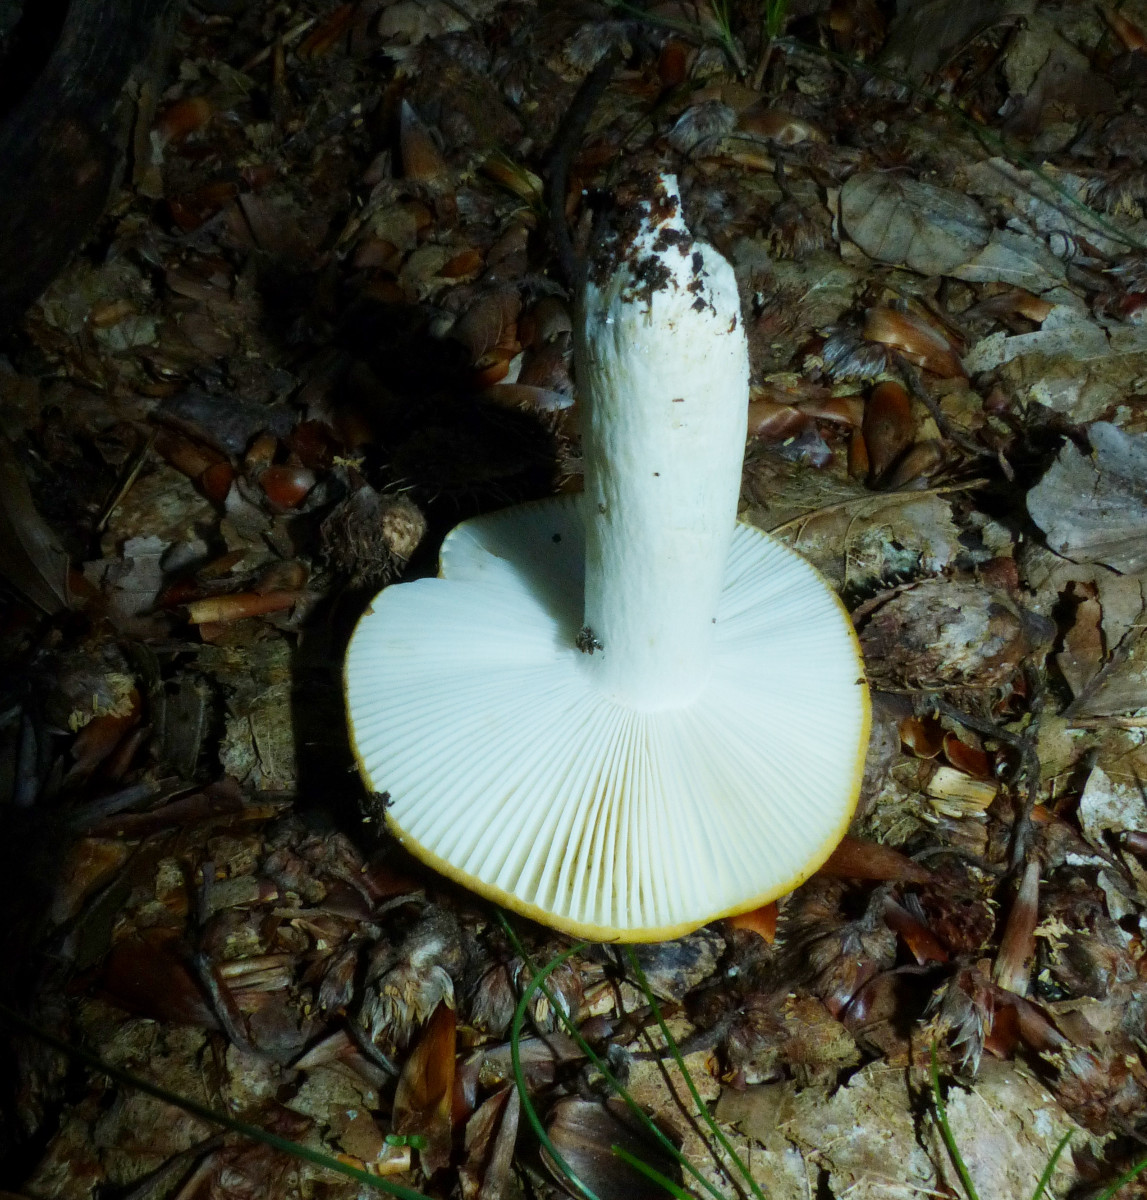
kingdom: Fungi
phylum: Basidiomycota
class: Agaricomycetes
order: Russulales
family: Russulaceae
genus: Russula
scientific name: Russula ochroleuca
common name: okkergul skørhat
